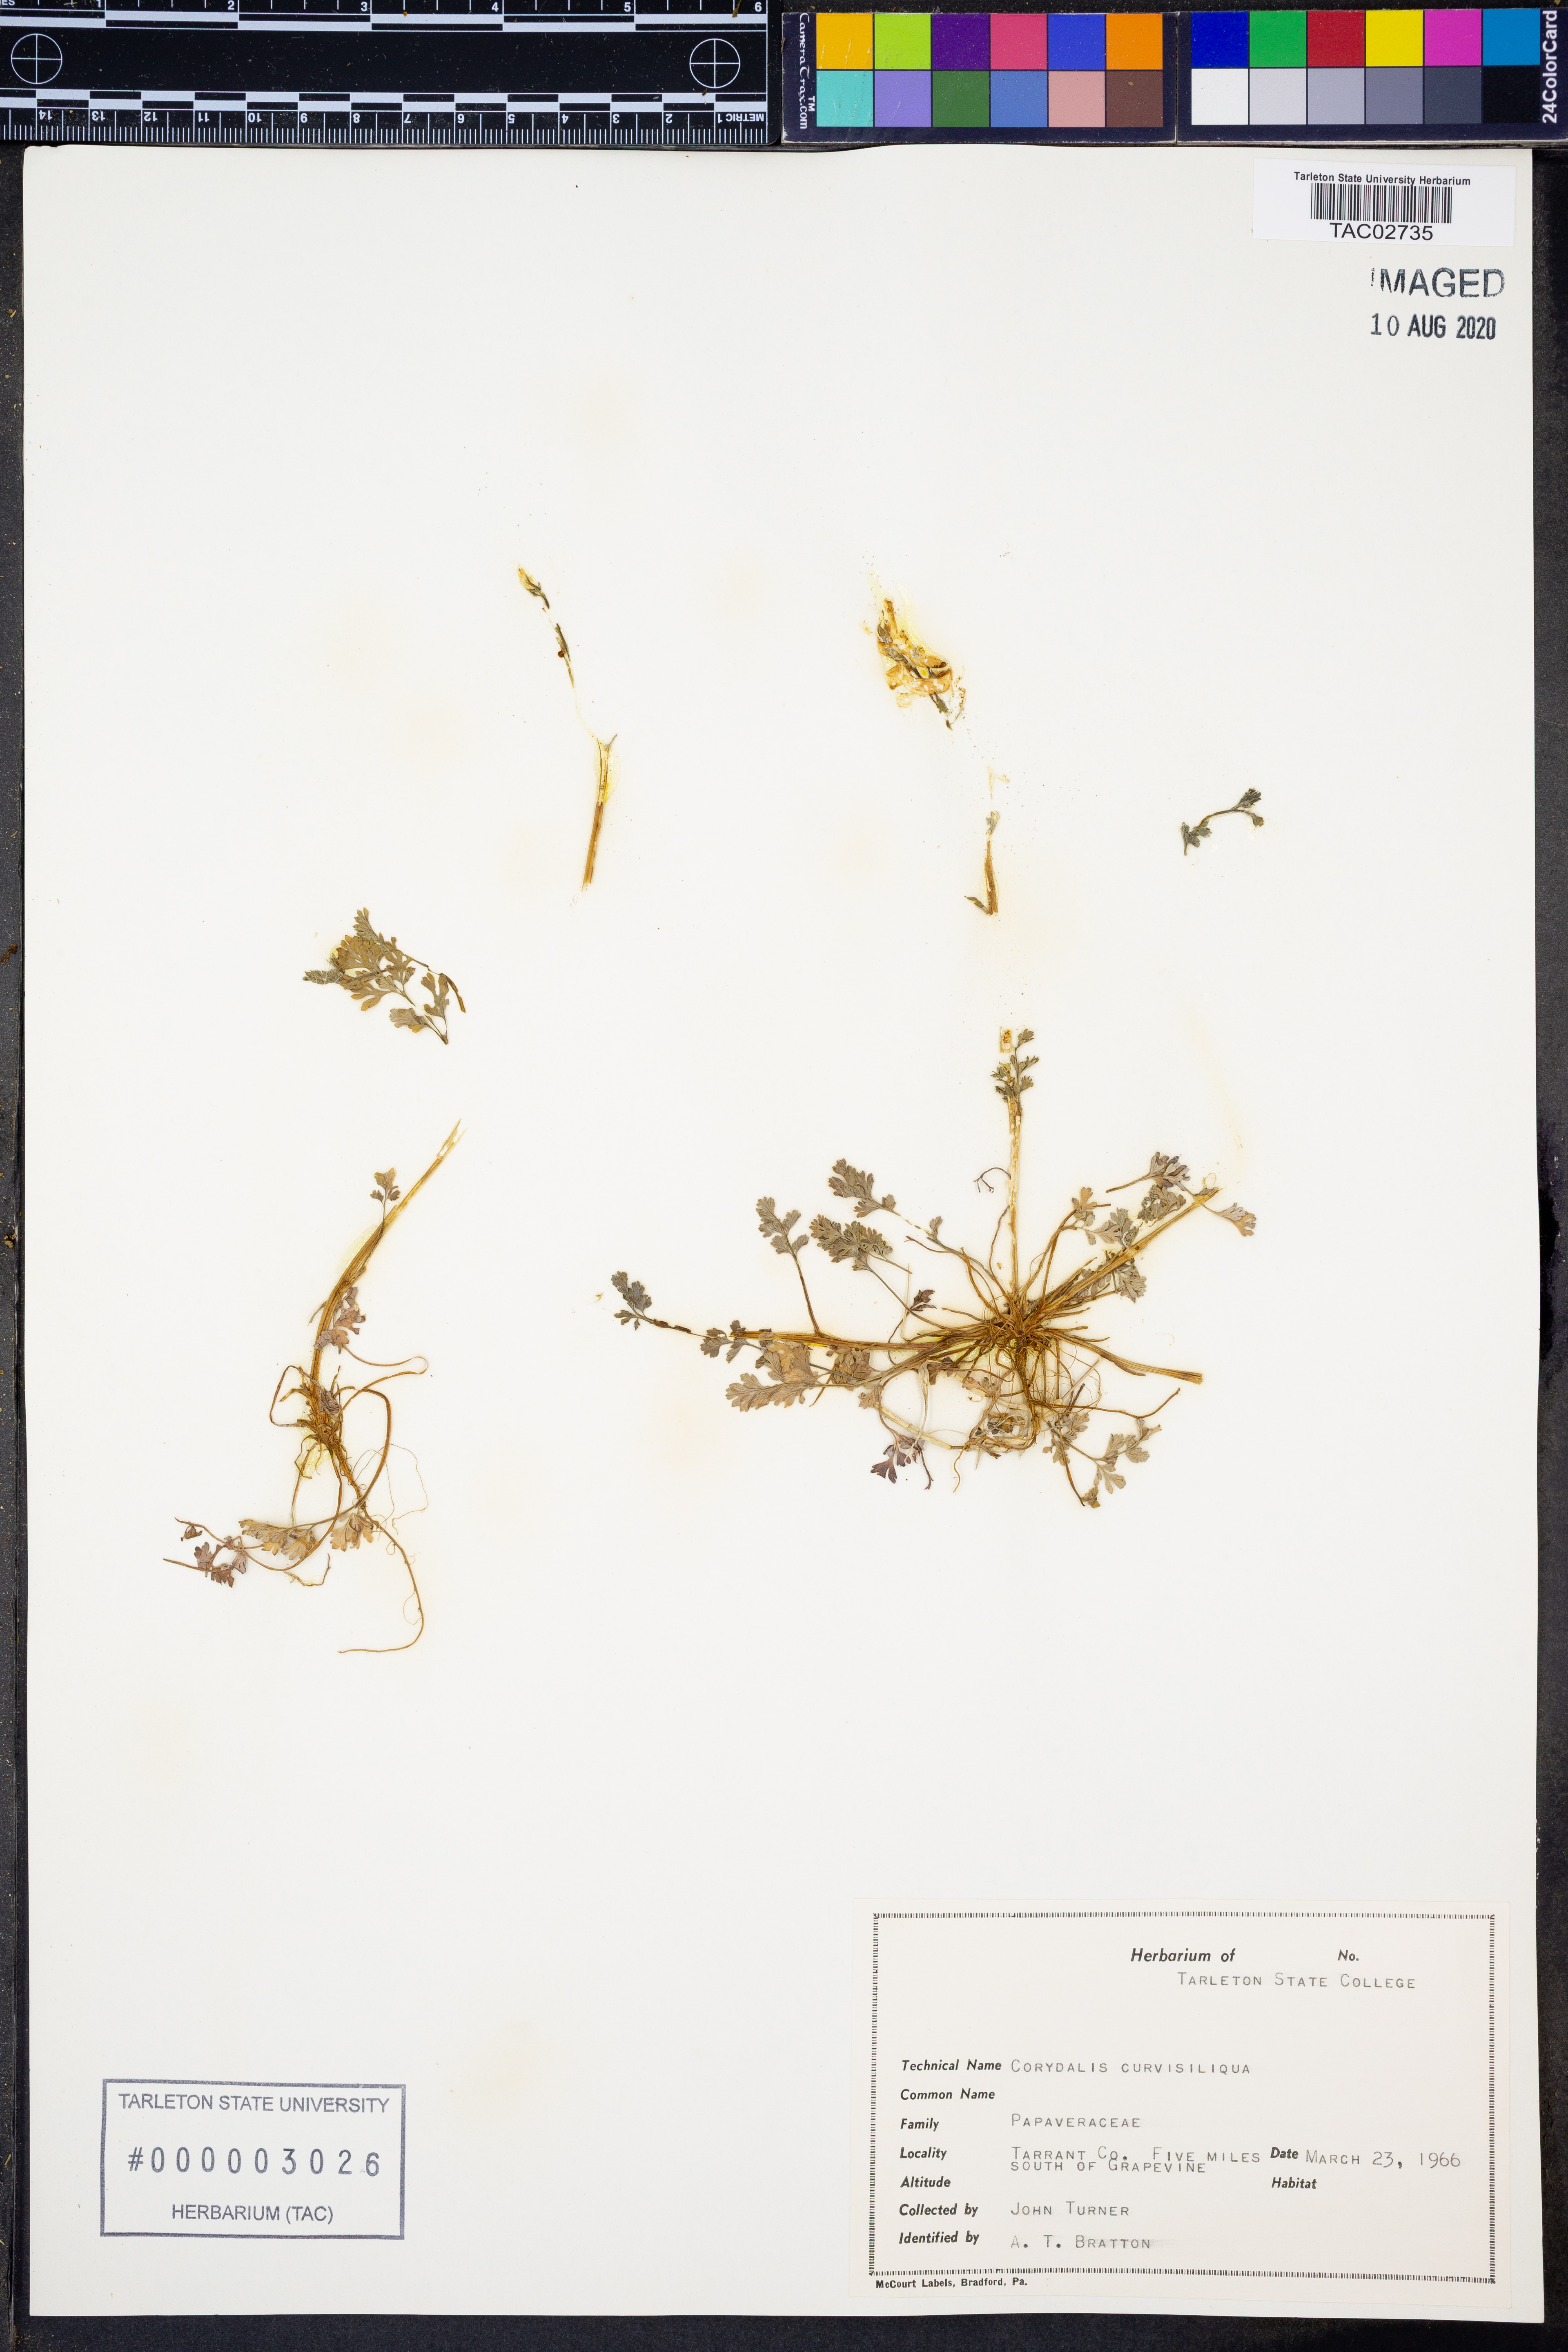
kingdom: Plantae
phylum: Tracheophyta
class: Magnoliopsida
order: Ranunculales
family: Papaveraceae
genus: Corydalis
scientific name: Corydalis curvisiliqua
